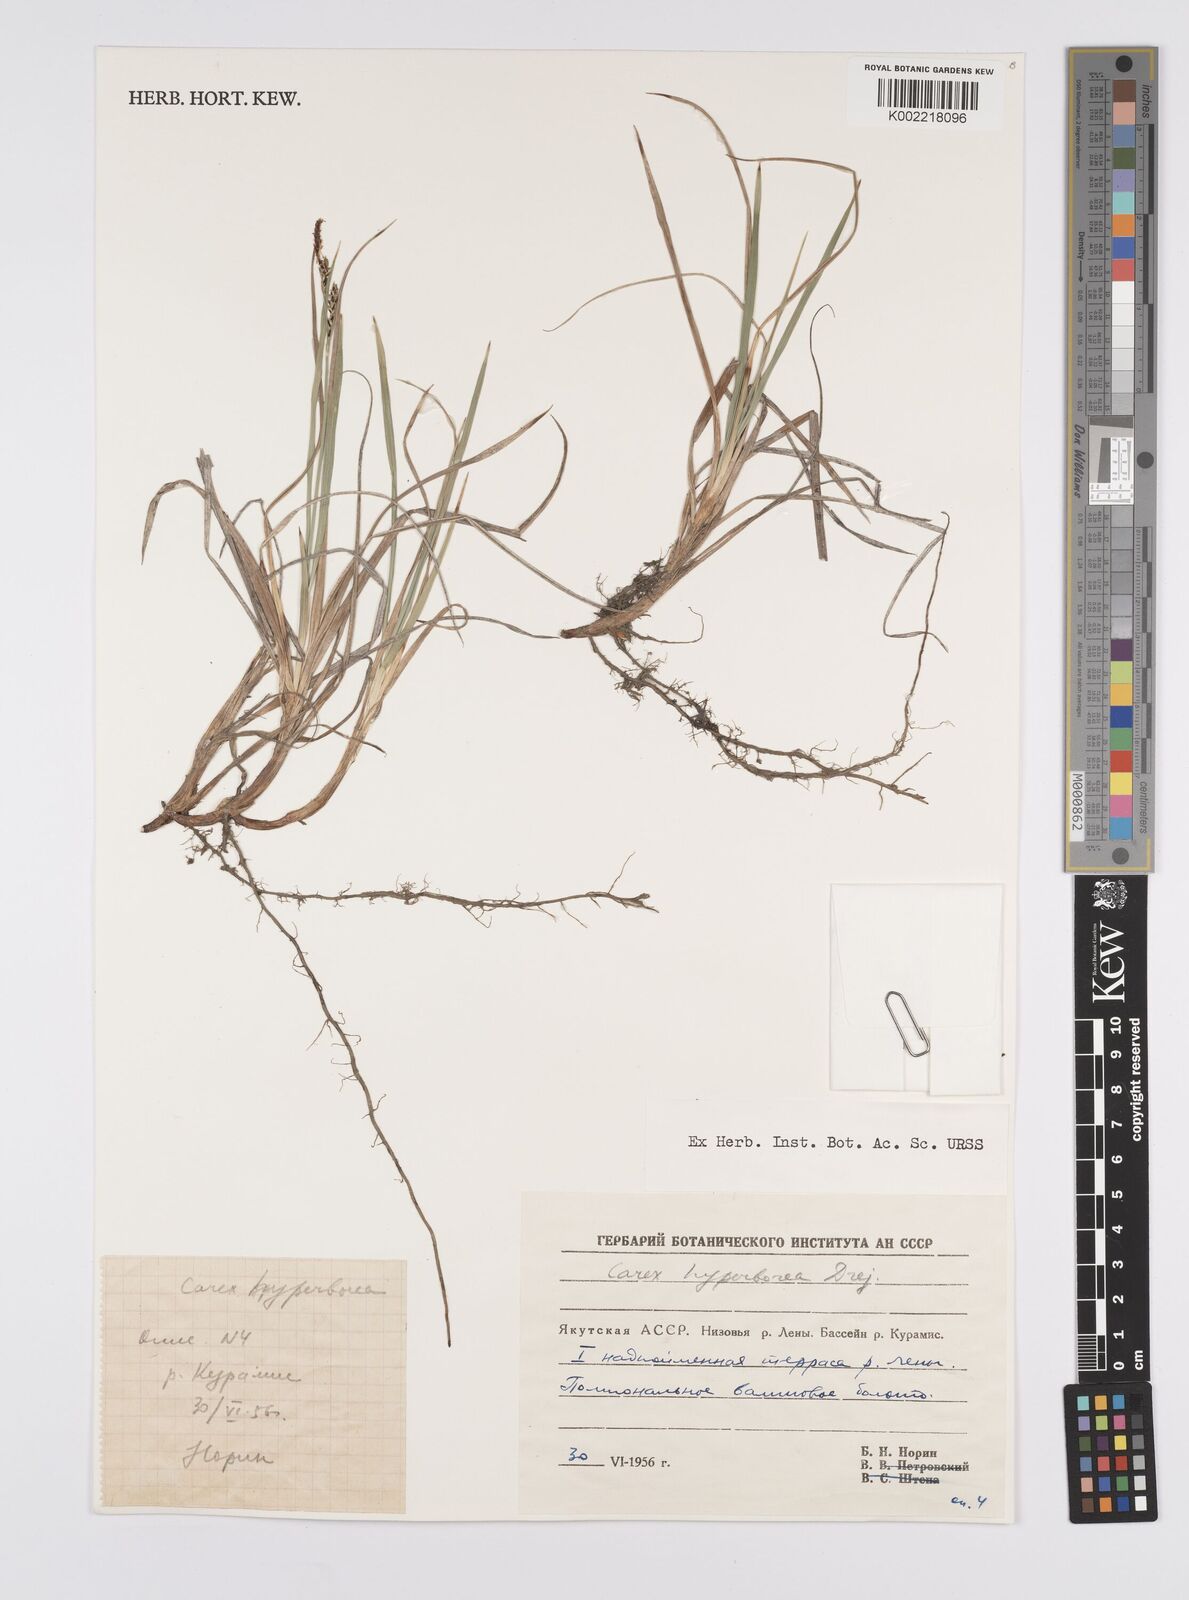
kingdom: Plantae
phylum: Tracheophyta
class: Liliopsida
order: Poales
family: Cyperaceae
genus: Carex
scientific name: Carex dacica
